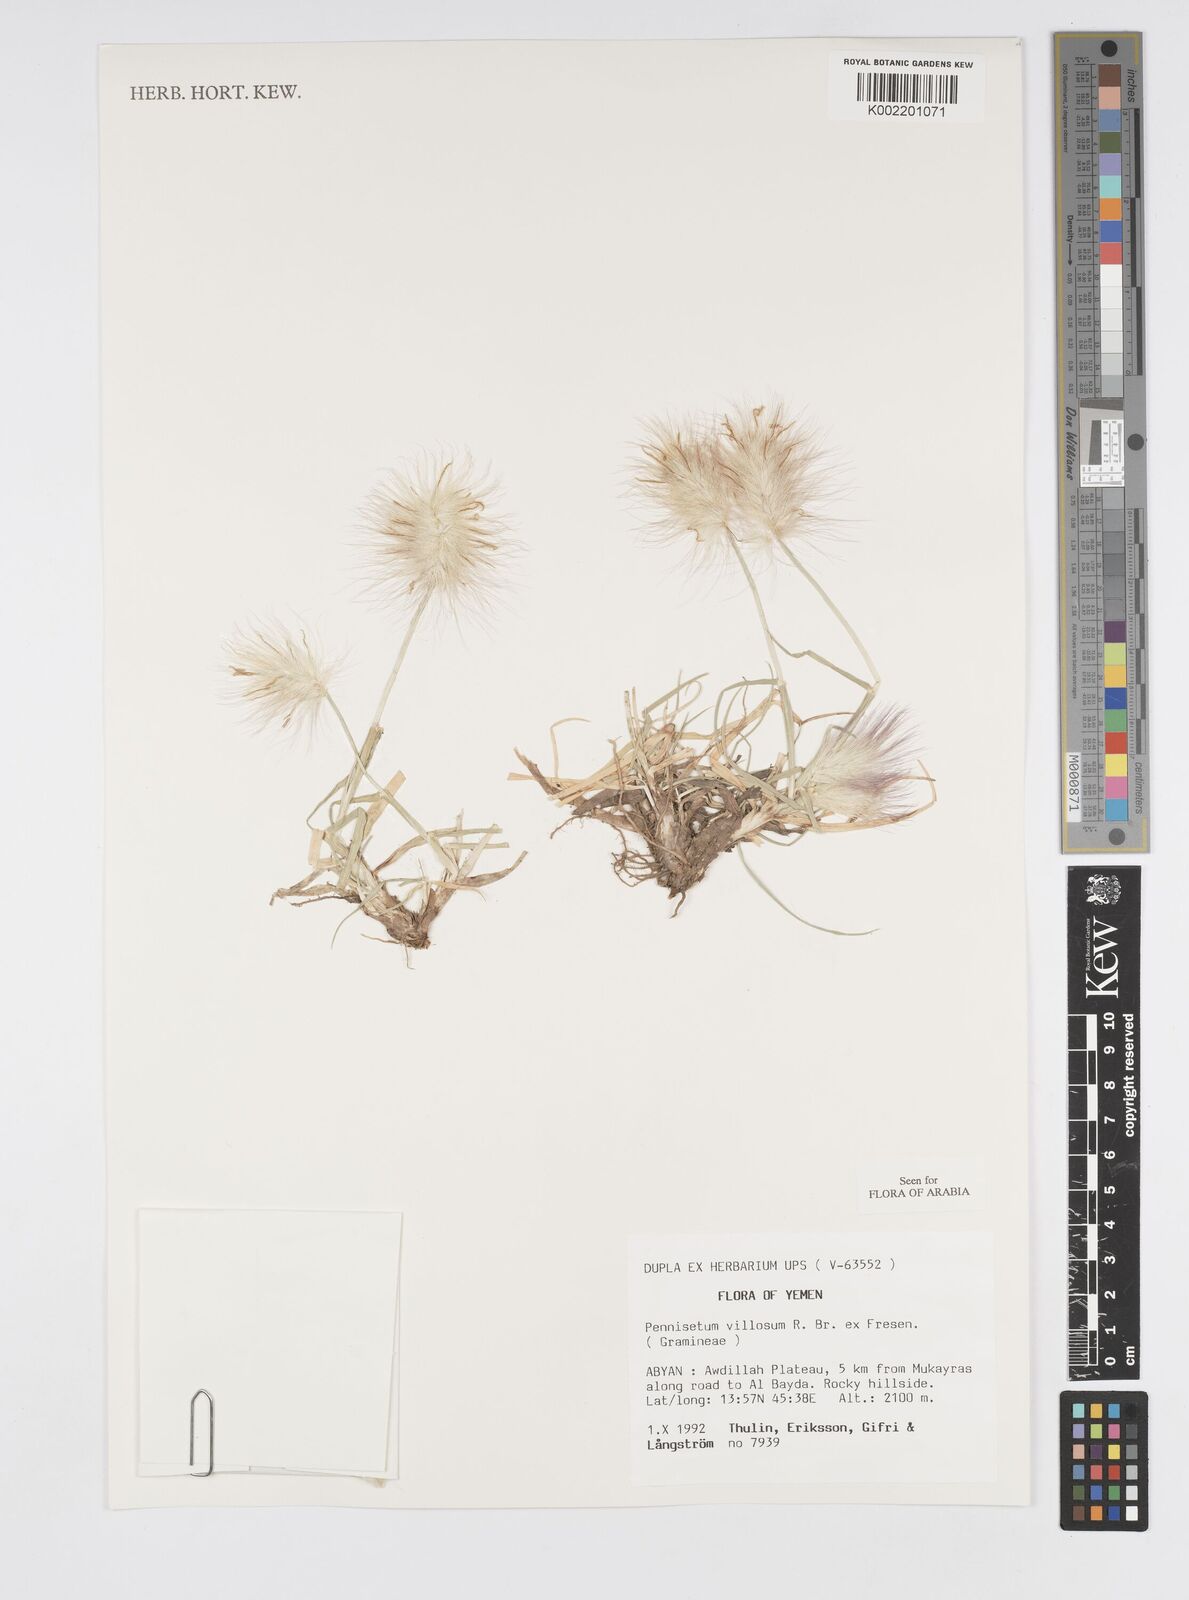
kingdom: Plantae
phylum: Tracheophyta
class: Liliopsida
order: Poales
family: Poaceae
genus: Cenchrus
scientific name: Cenchrus longisetus
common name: Feathertop
